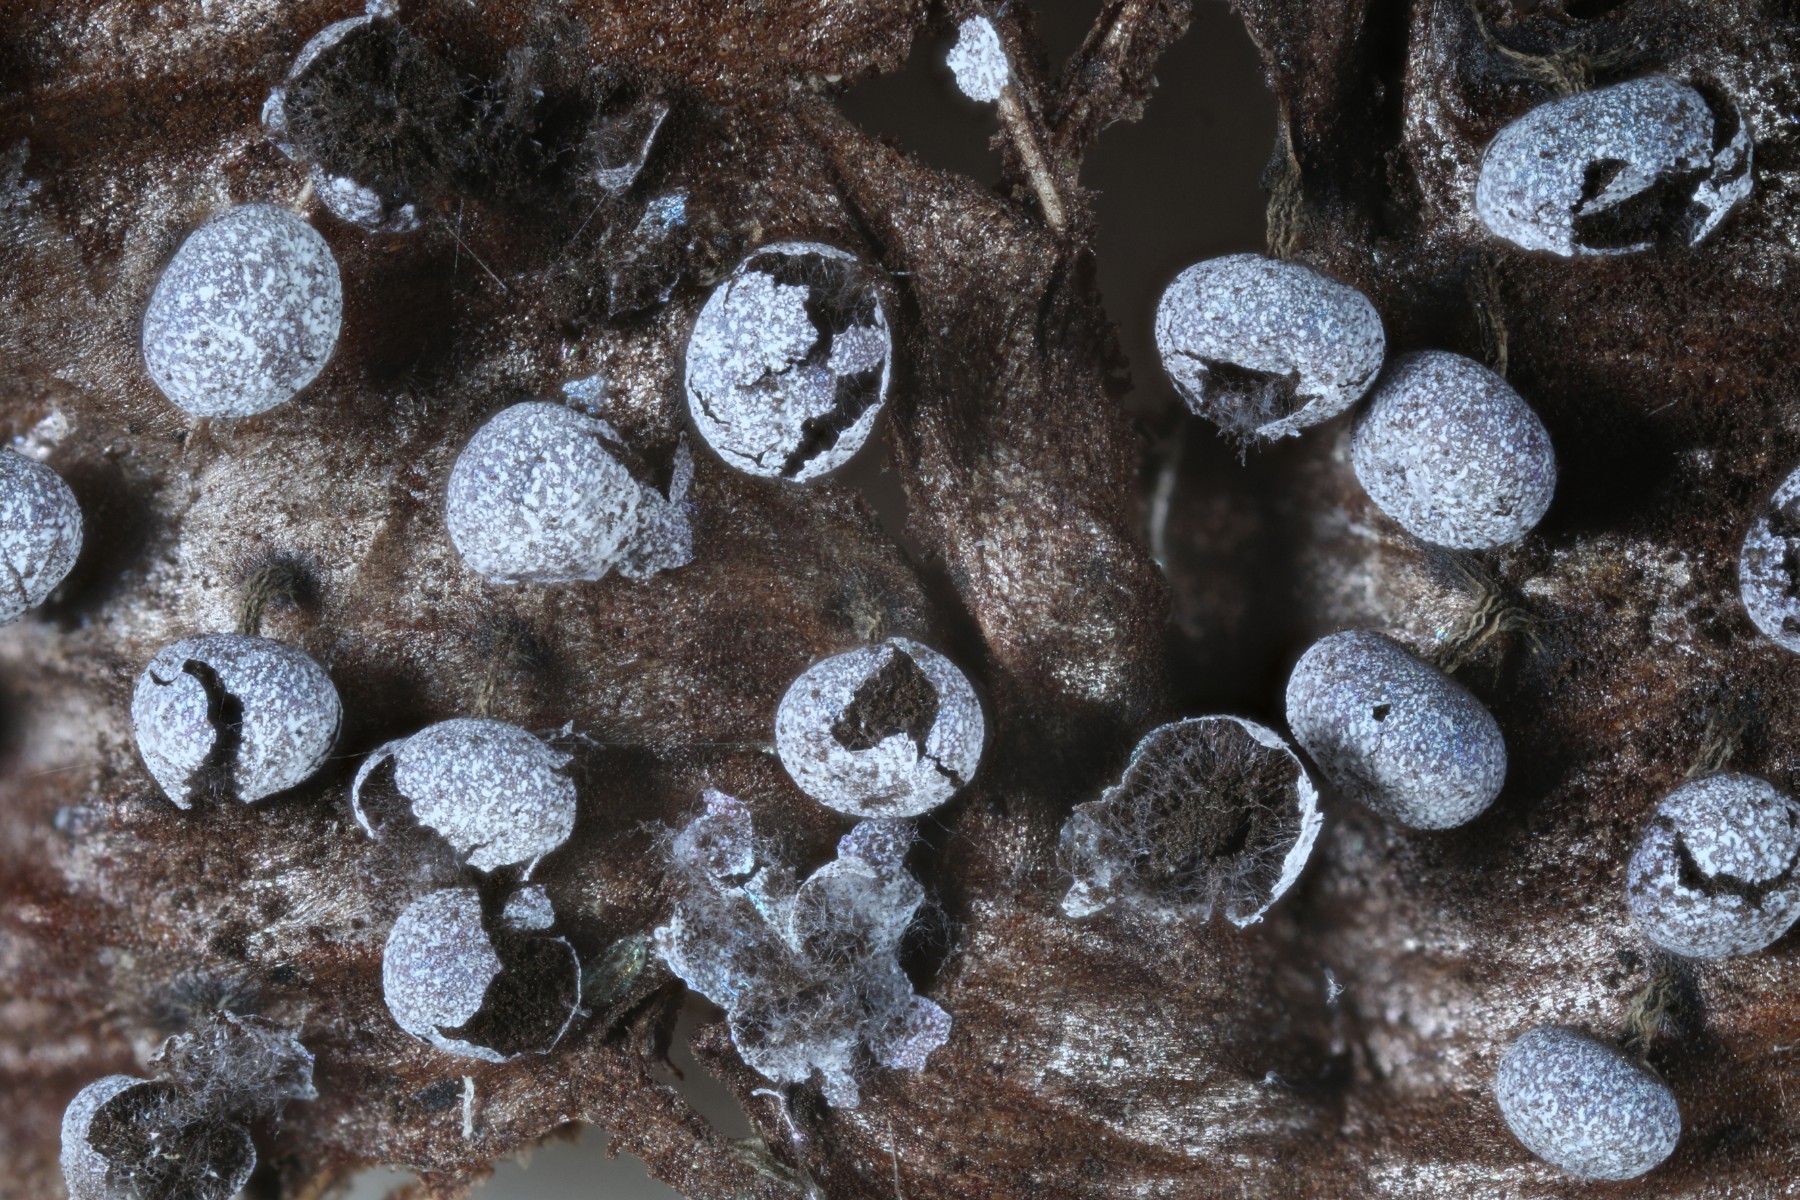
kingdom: Protozoa
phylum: Mycetozoa
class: Myxomycetes
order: Physarales
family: Physaraceae
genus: Physarum
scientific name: Physarum leucophaeum
